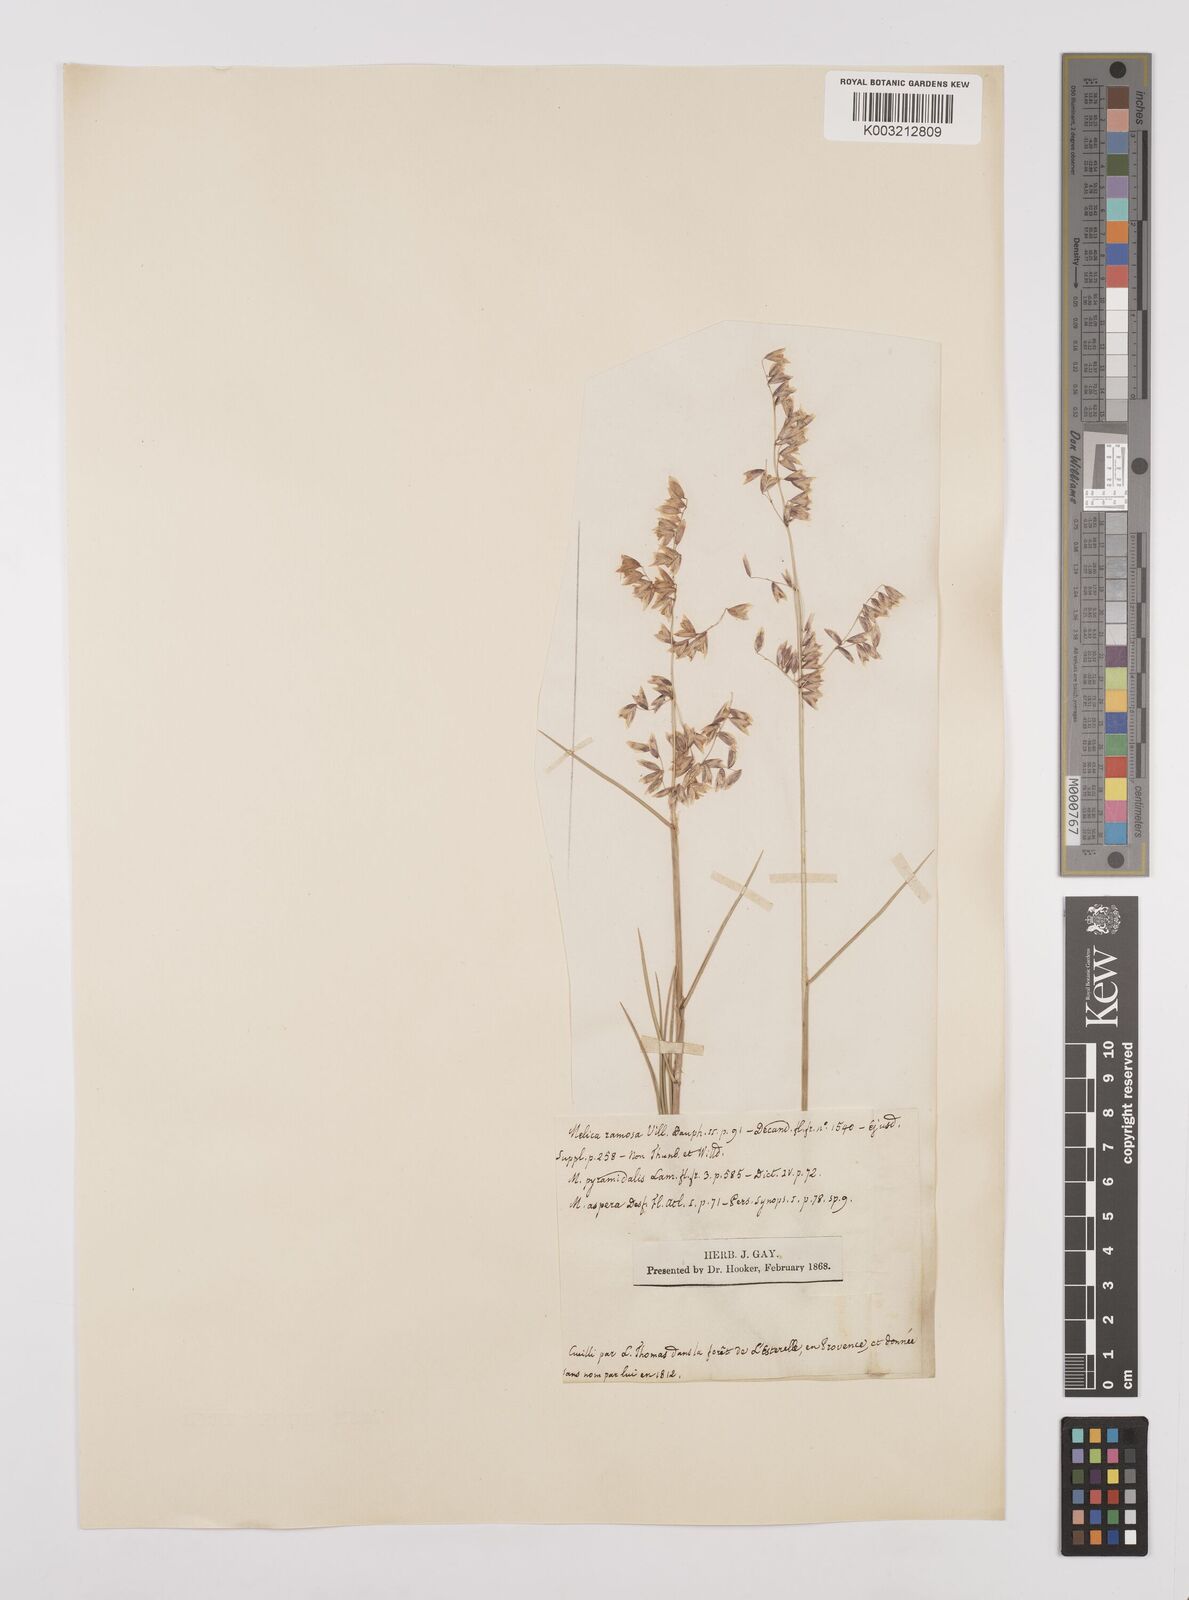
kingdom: Plantae
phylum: Tracheophyta
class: Liliopsida
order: Poales
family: Poaceae
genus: Melica
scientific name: Melica minuta
